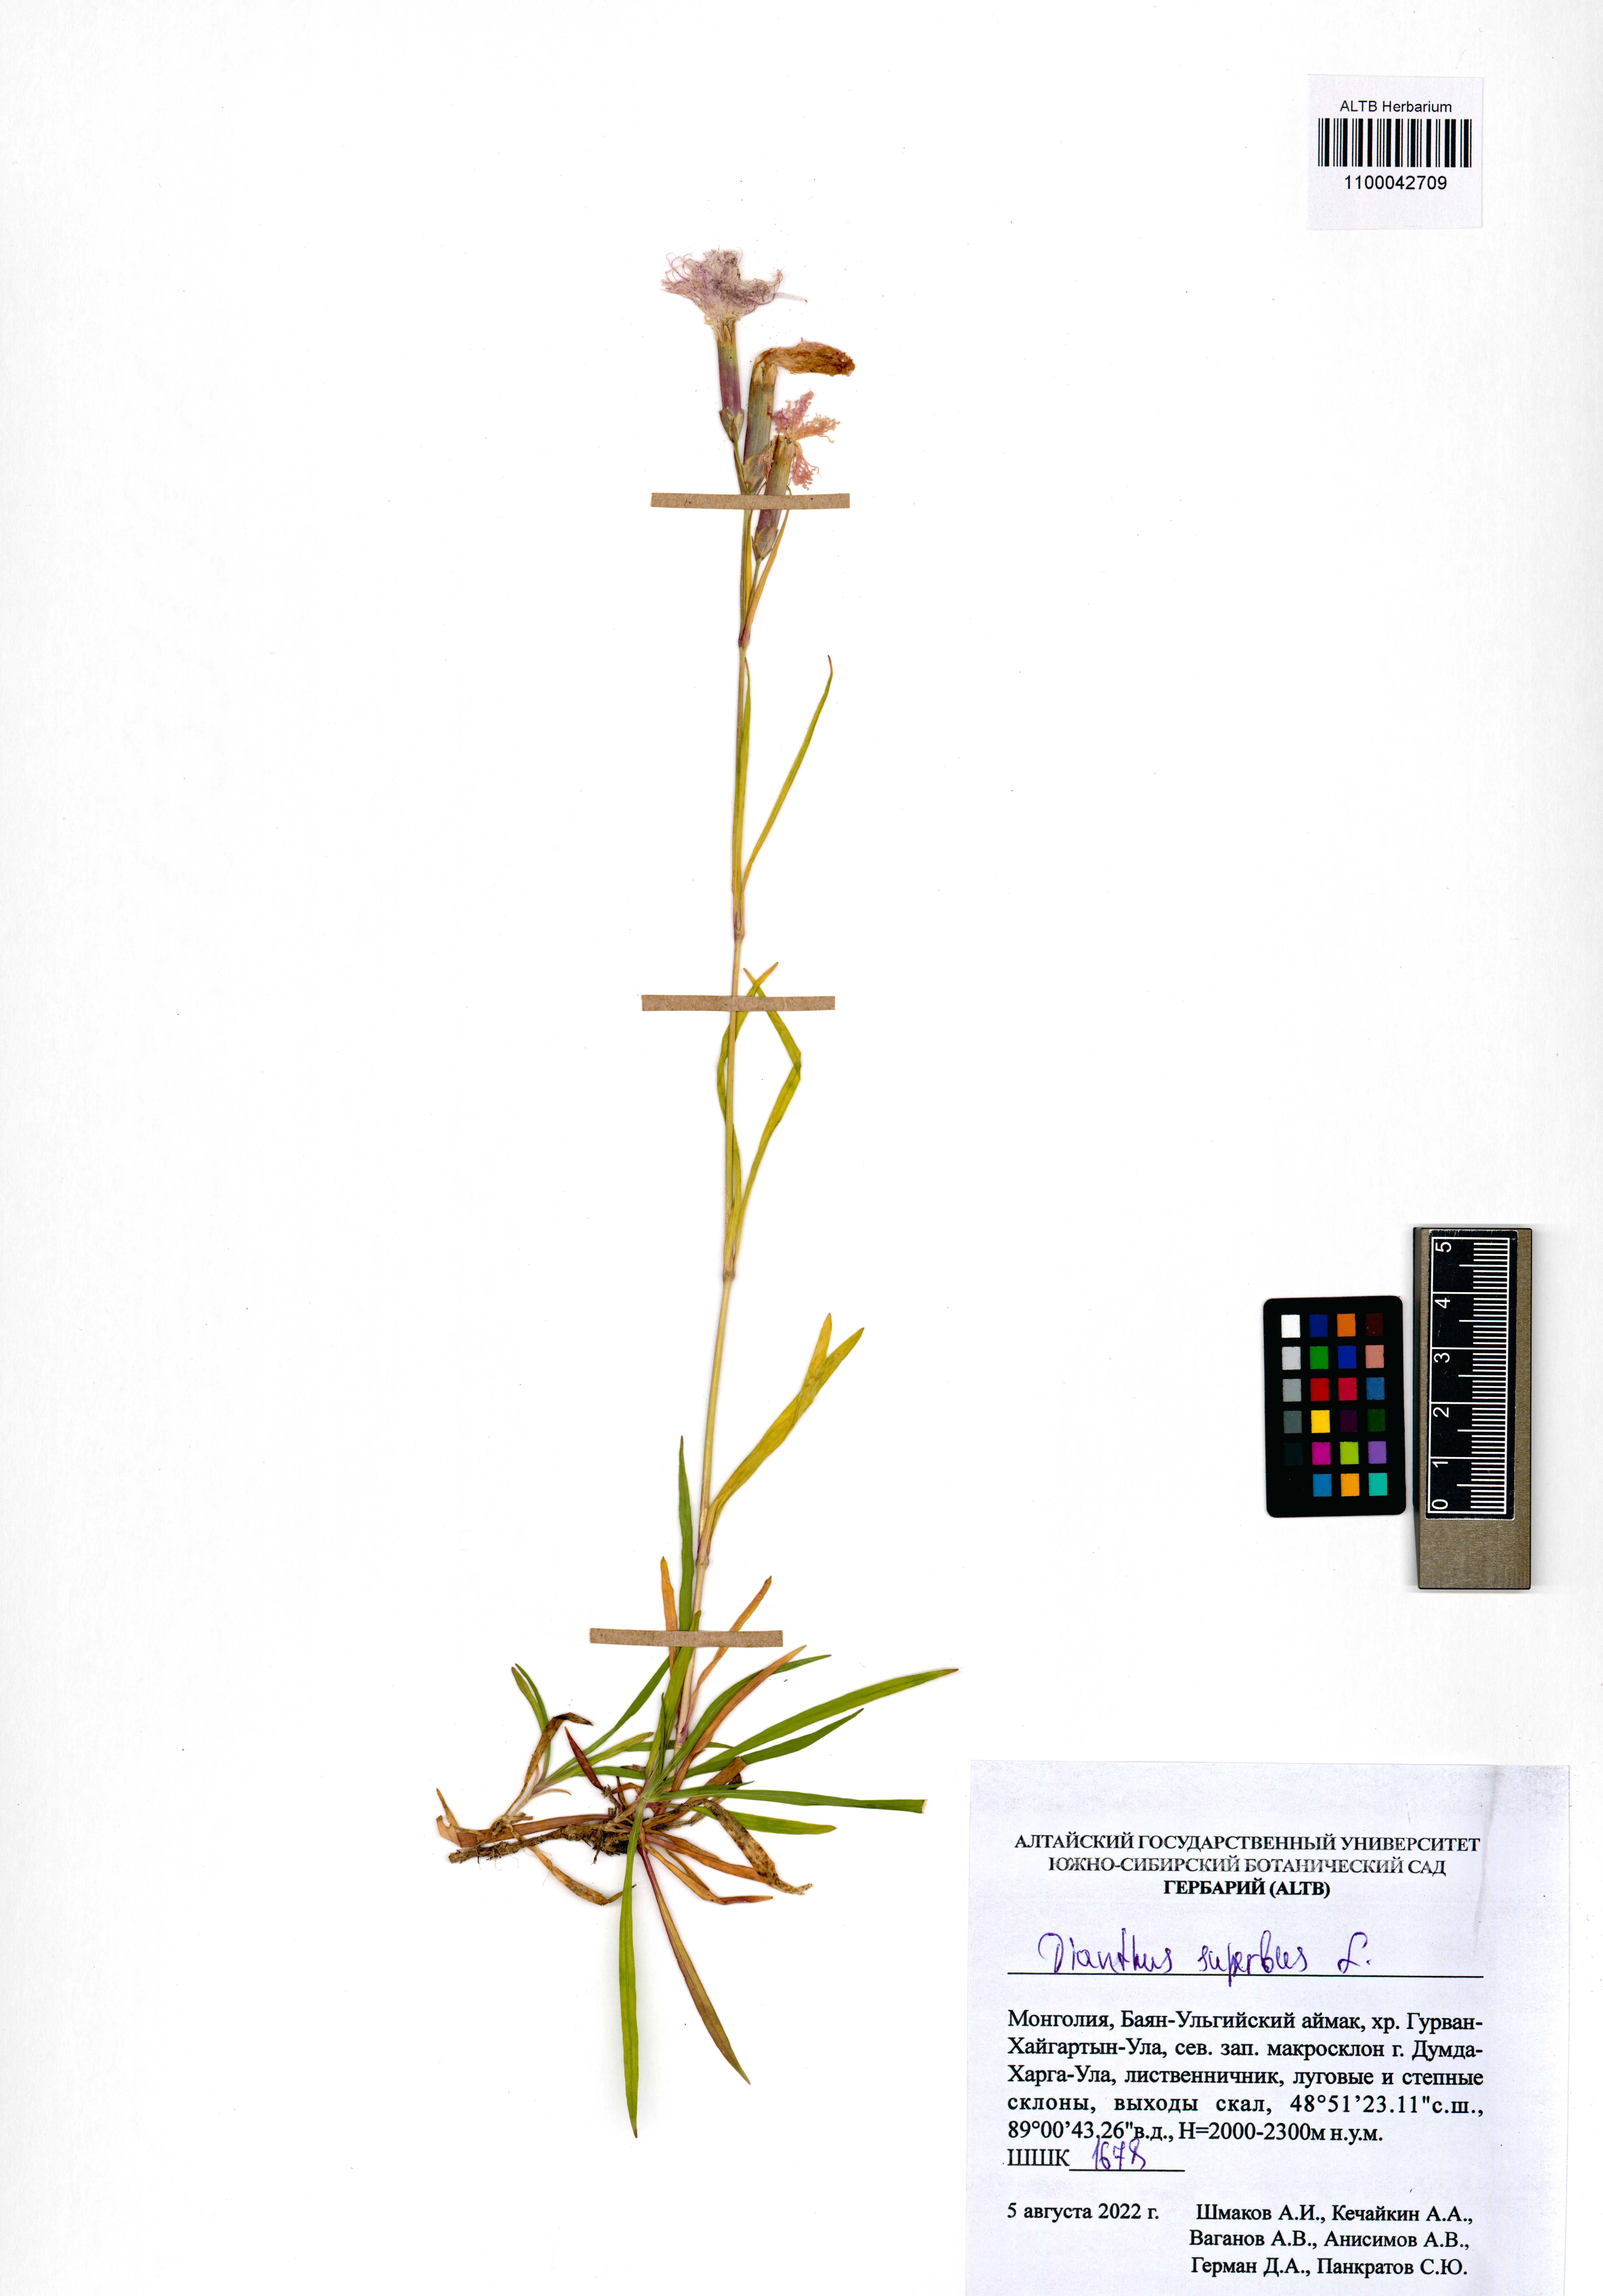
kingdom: Plantae
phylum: Tracheophyta
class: Magnoliopsida
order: Caryophyllales
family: Caryophyllaceae
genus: Dianthus
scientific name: Dianthus superbus
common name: Fringed pink
